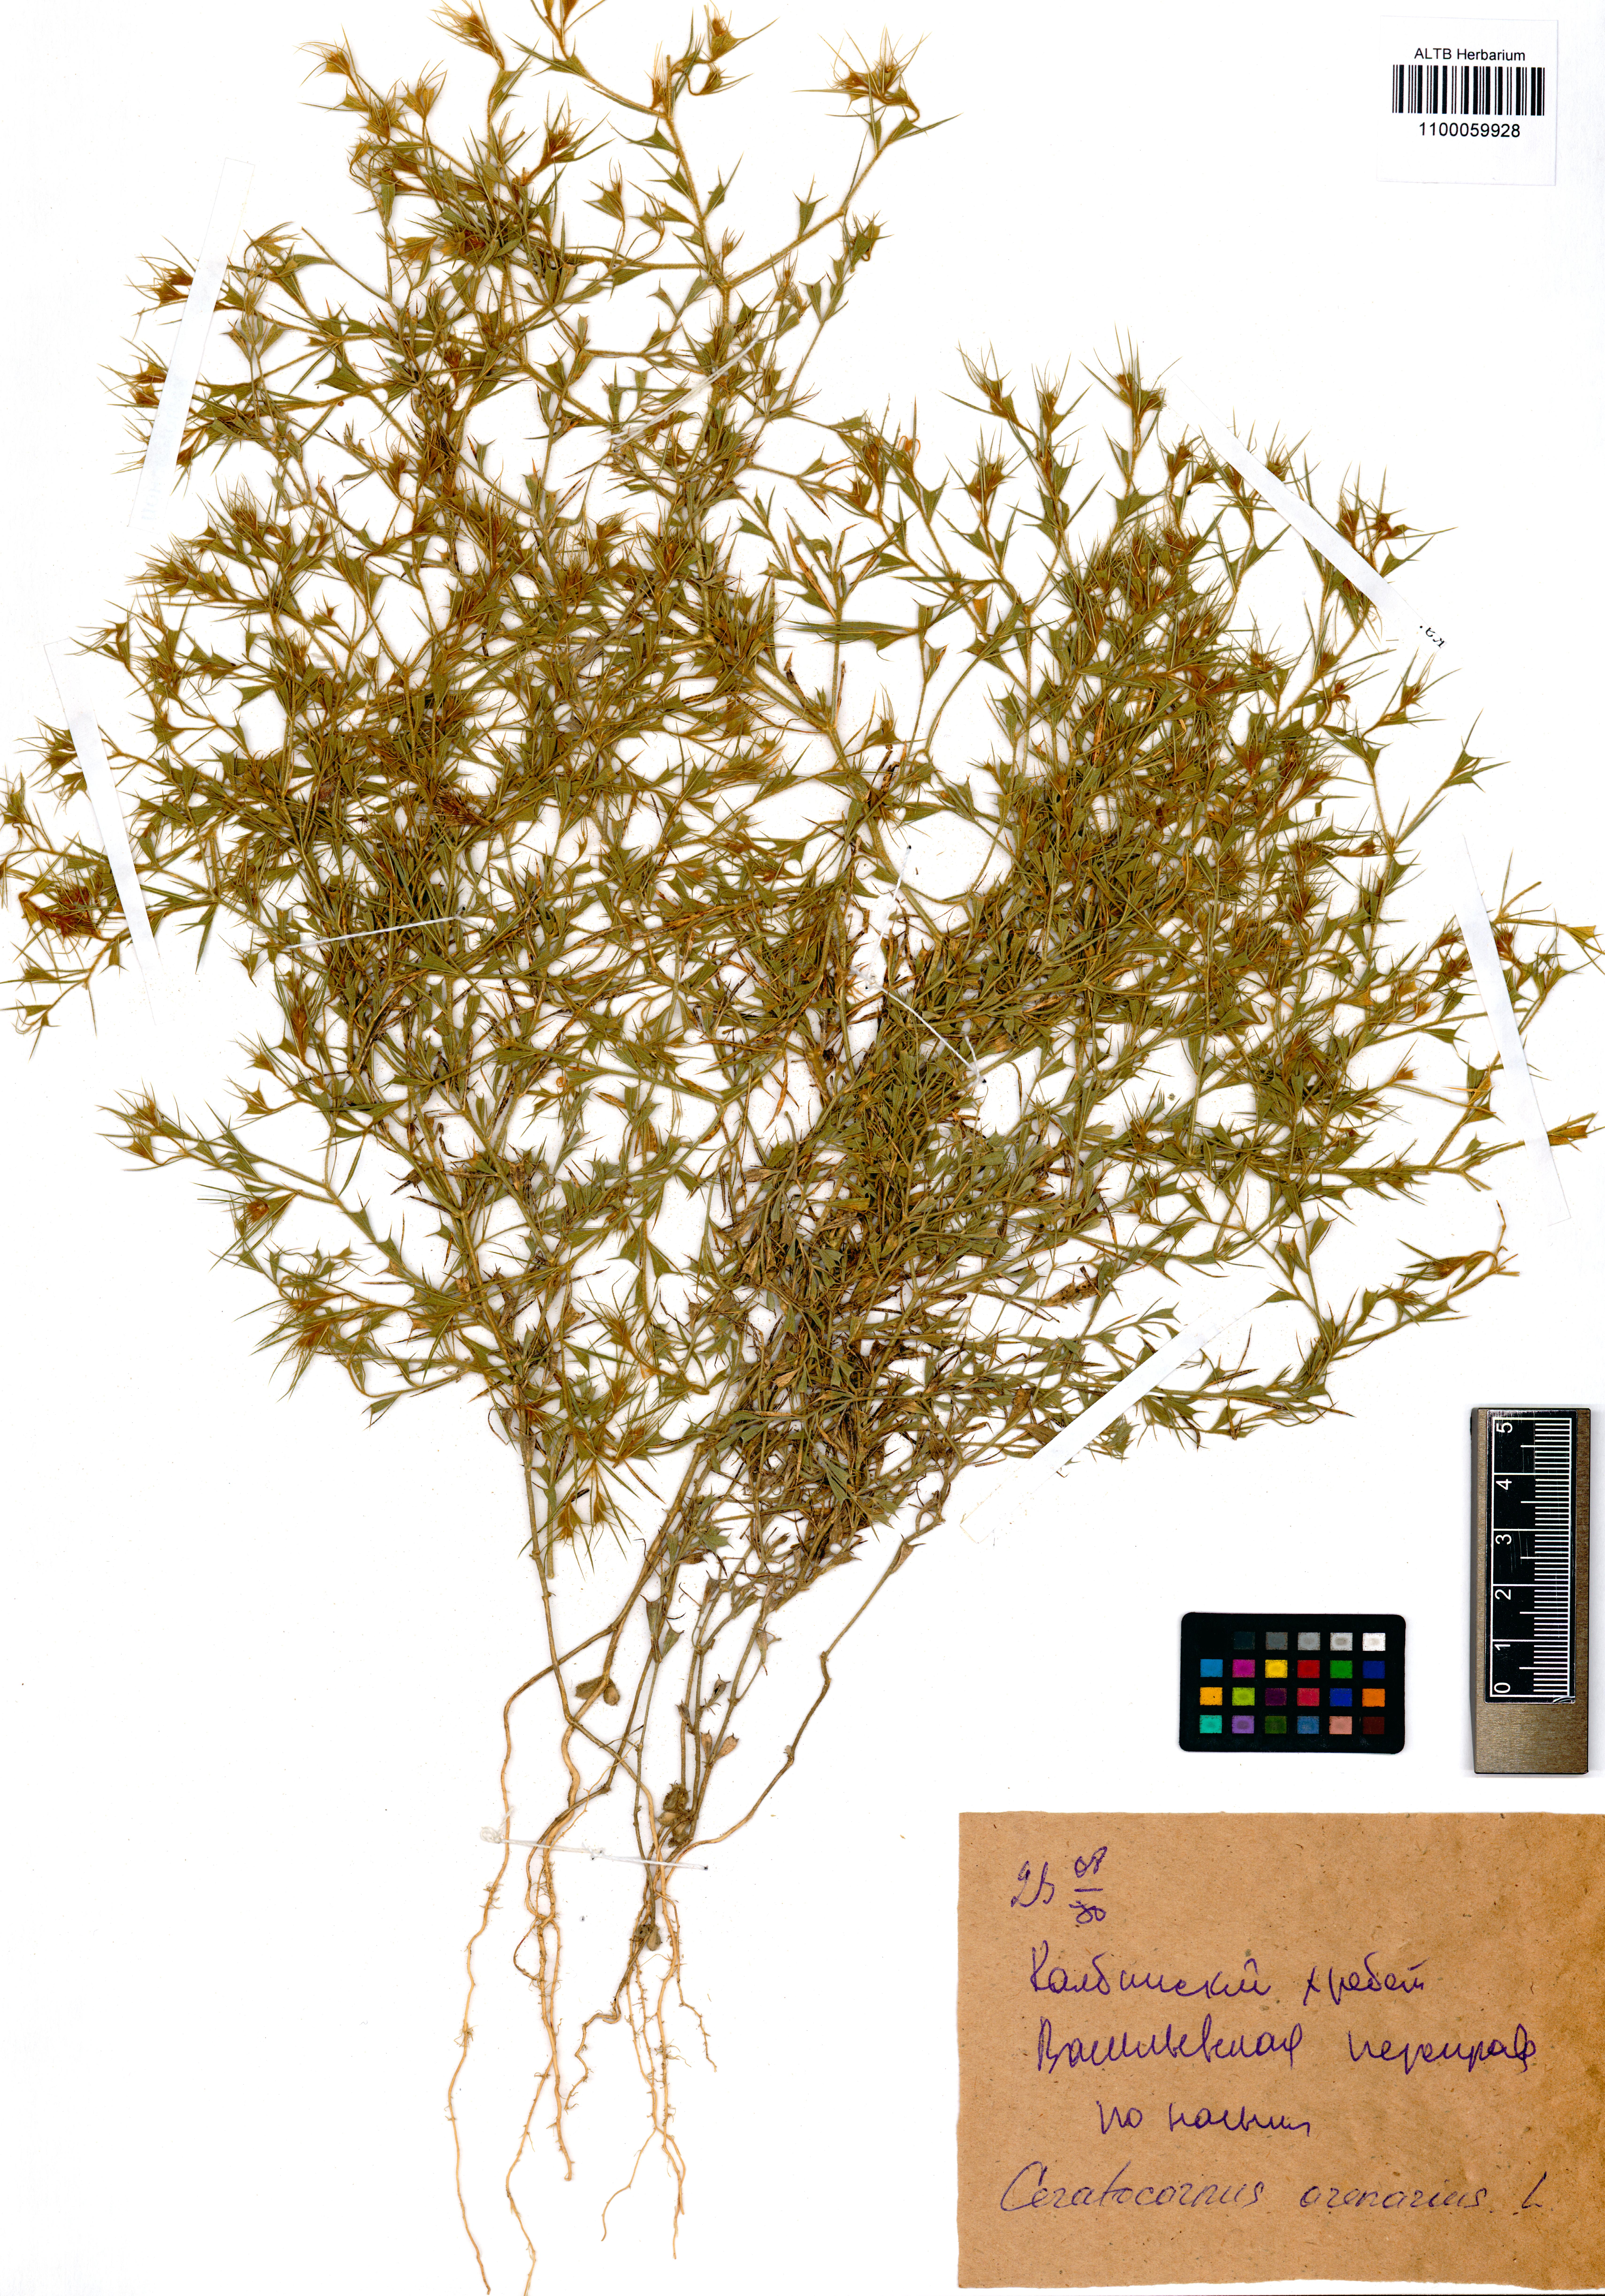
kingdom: Plantae
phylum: Tracheophyta
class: Magnoliopsida
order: Caryophyllales
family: Amaranthaceae
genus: Ceratocarpus
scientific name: Ceratocarpus arenarius
